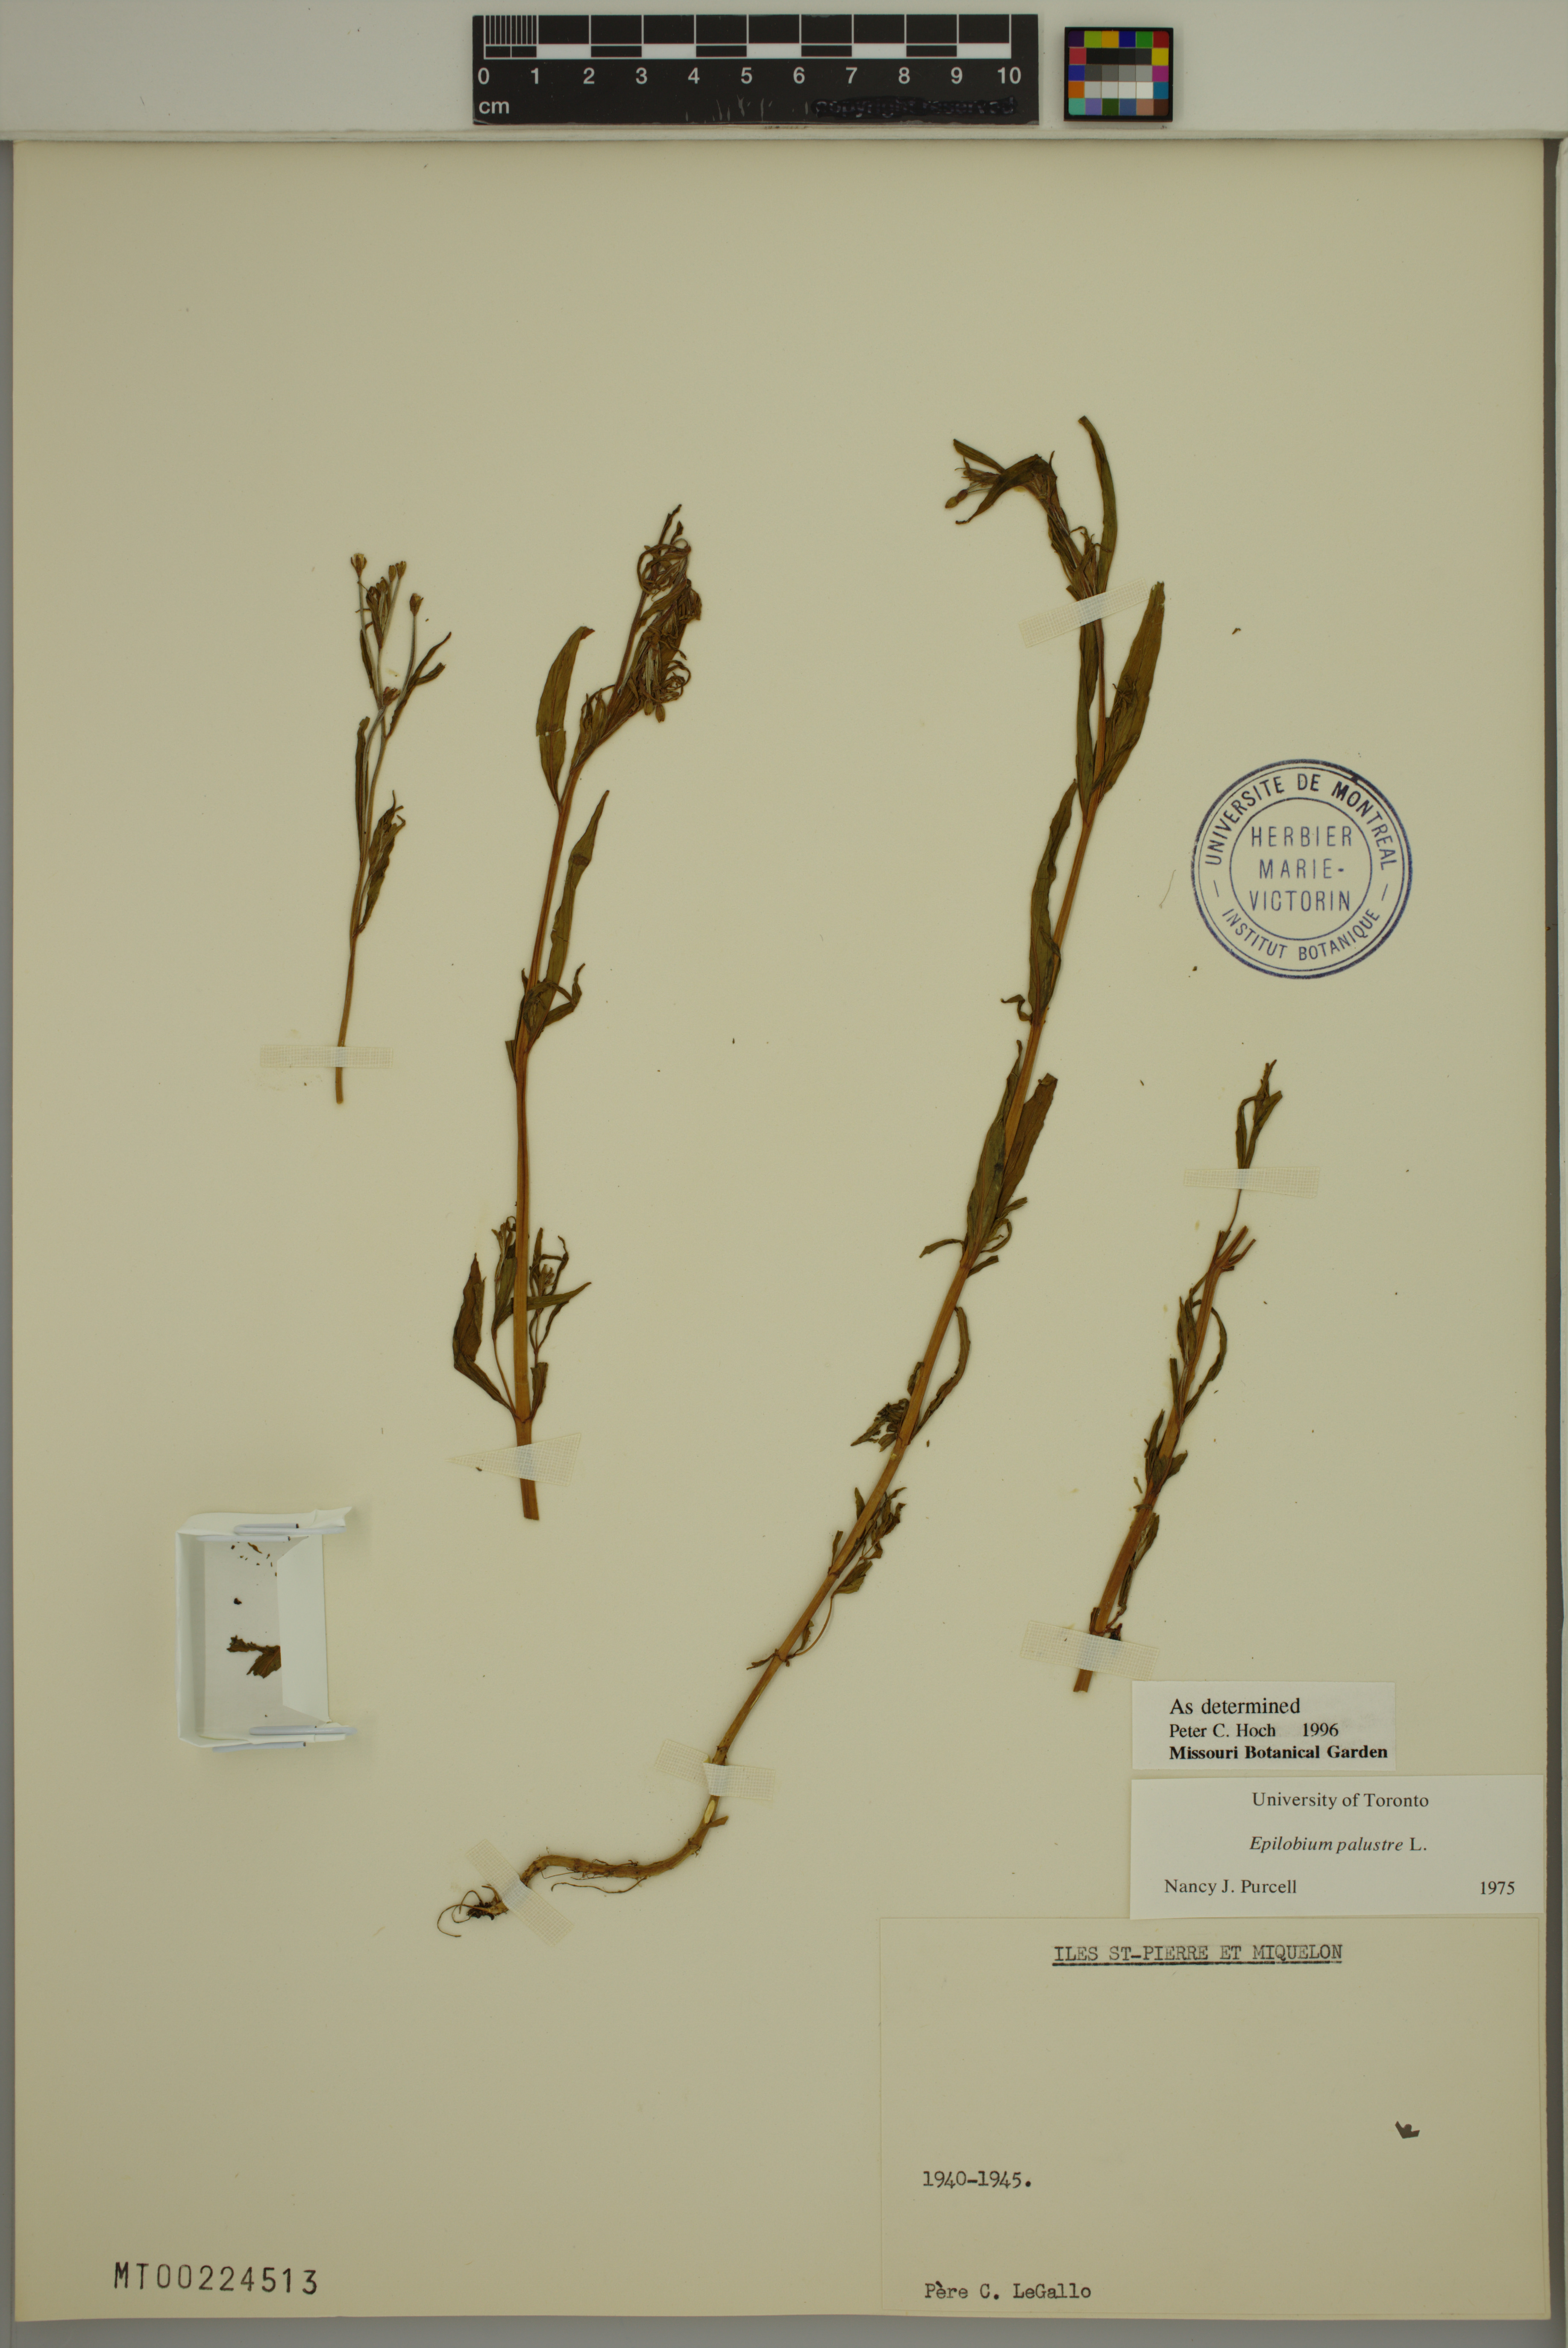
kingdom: Plantae
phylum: Tracheophyta
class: Magnoliopsida
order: Myrtales
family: Onagraceae
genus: Epilobium
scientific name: Epilobium palustre
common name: Marsh willowherb
